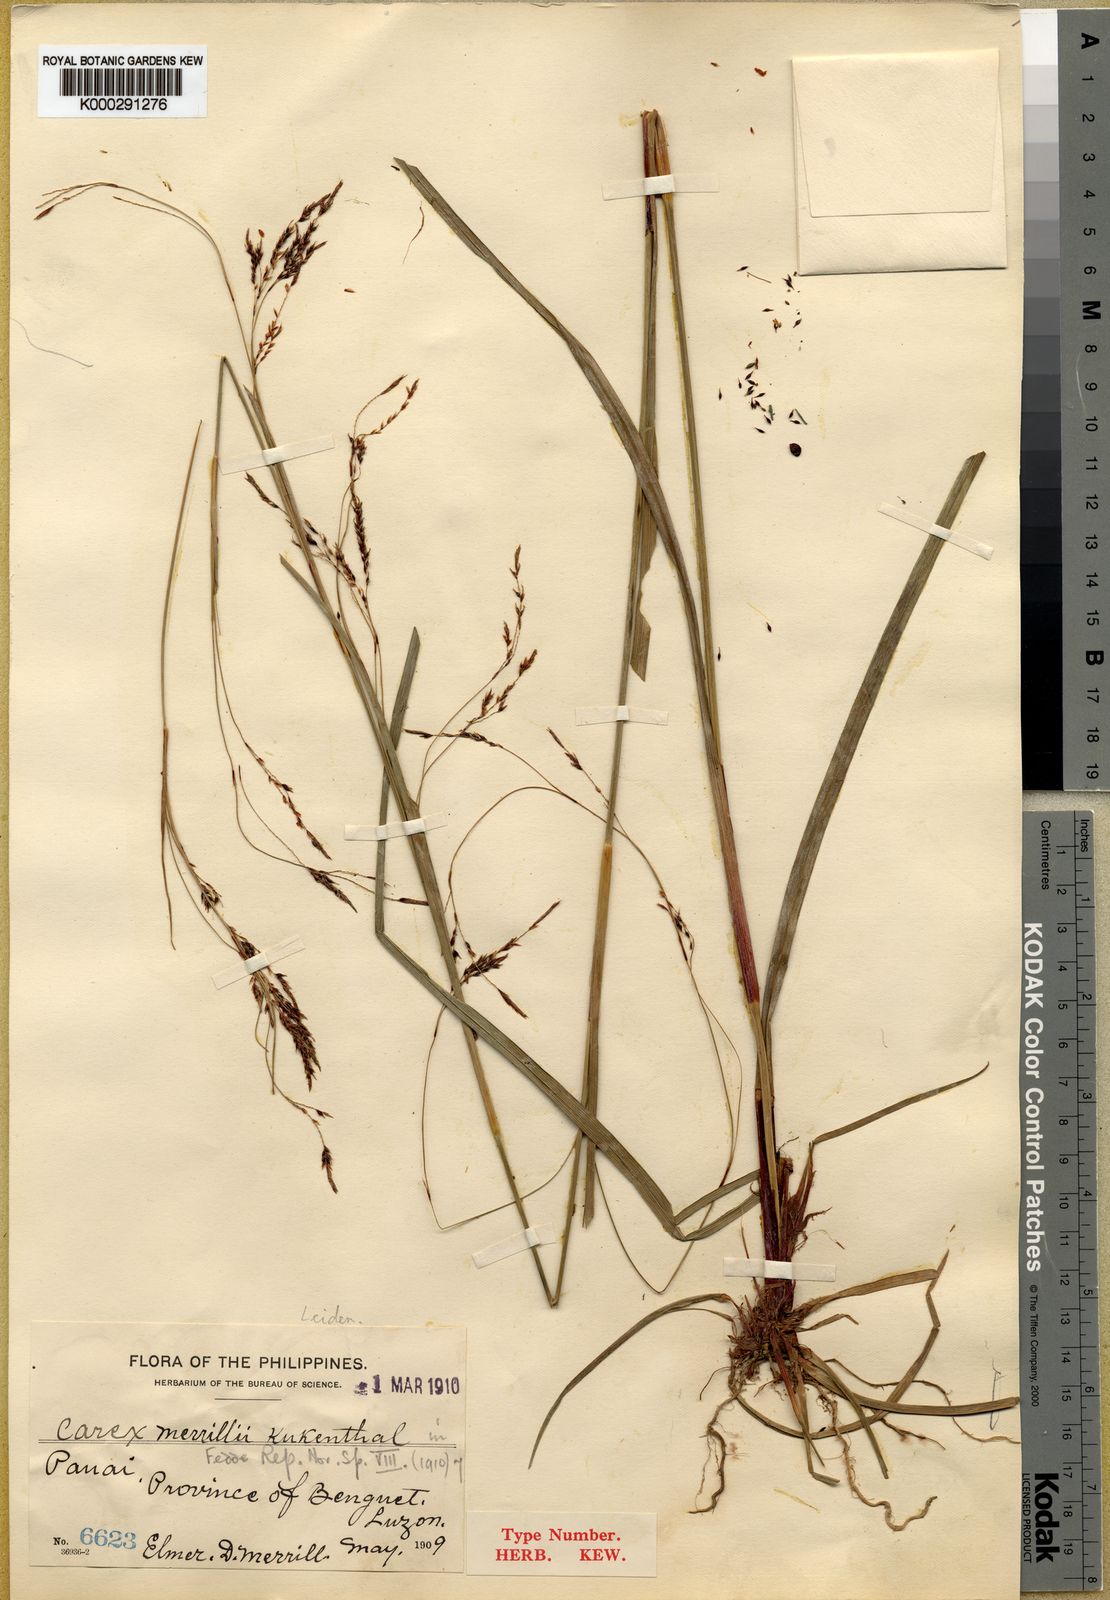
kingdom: Plantae
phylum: Tracheophyta
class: Liliopsida
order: Poales
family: Cyperaceae
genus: Carex
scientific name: Carex turrita
